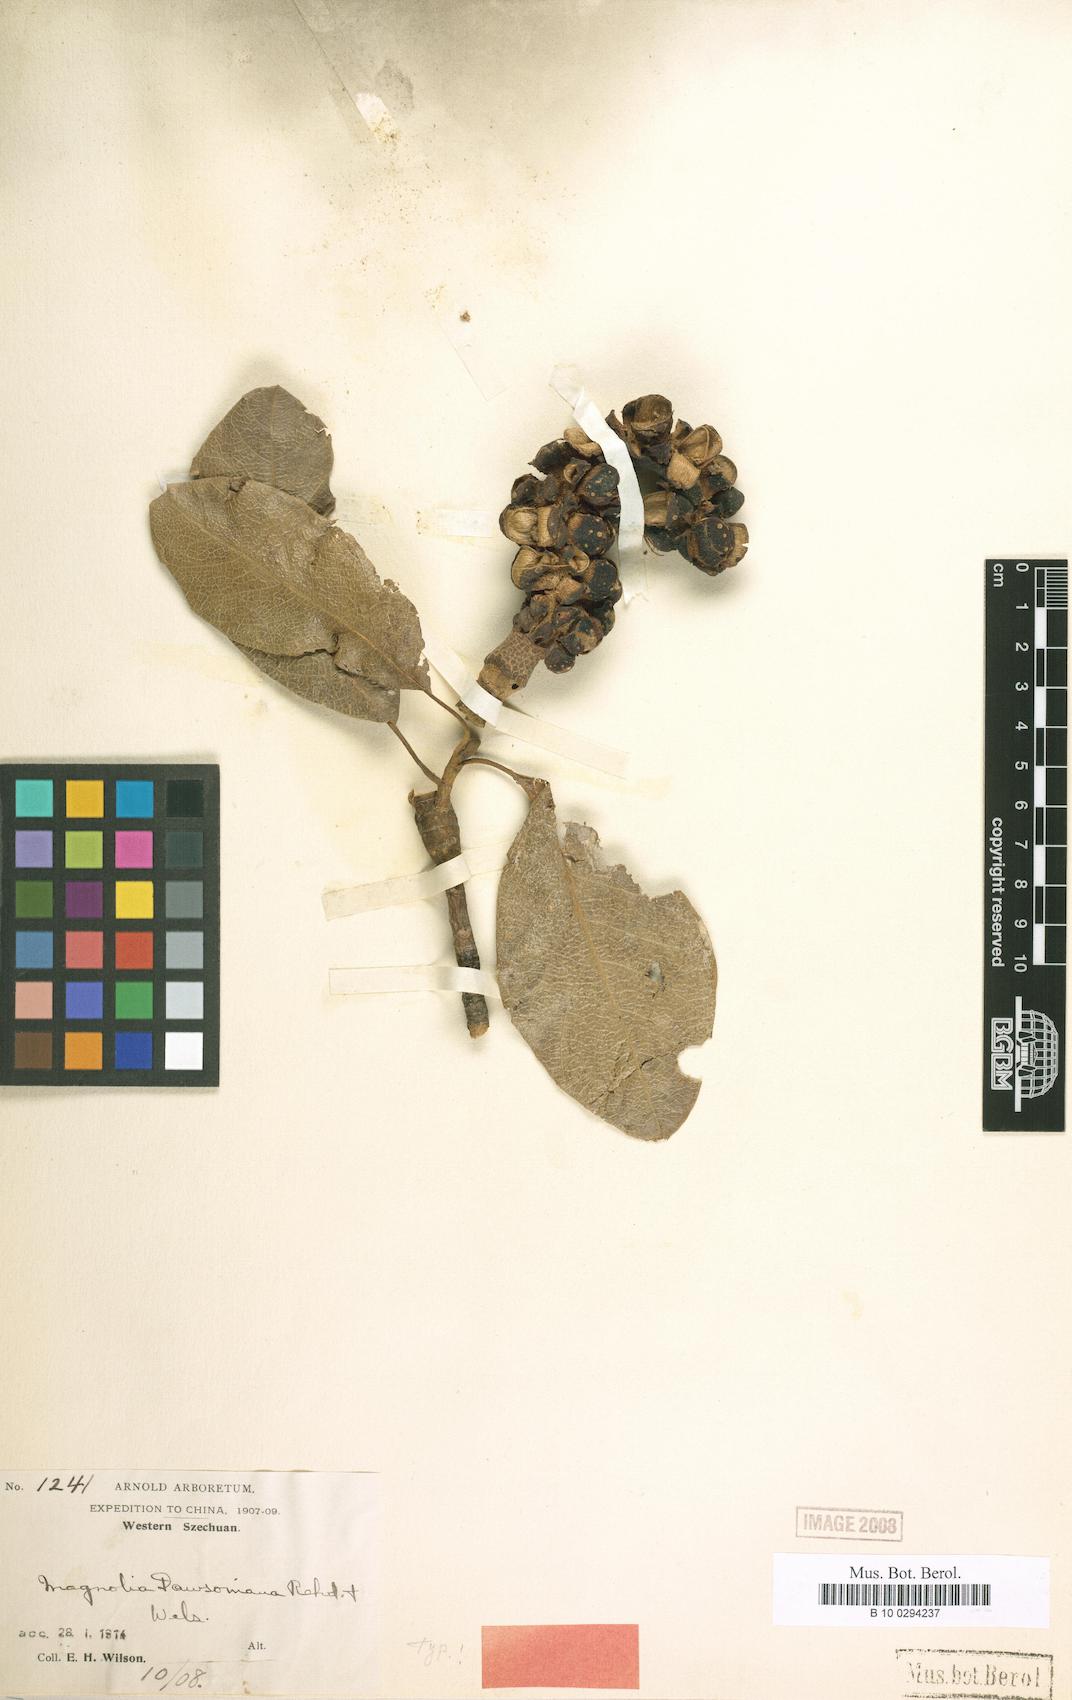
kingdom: Plantae
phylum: Tracheophyta
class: Magnoliopsida
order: Magnoliales
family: Magnoliaceae
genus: Magnolia
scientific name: Magnolia dawsoniana
